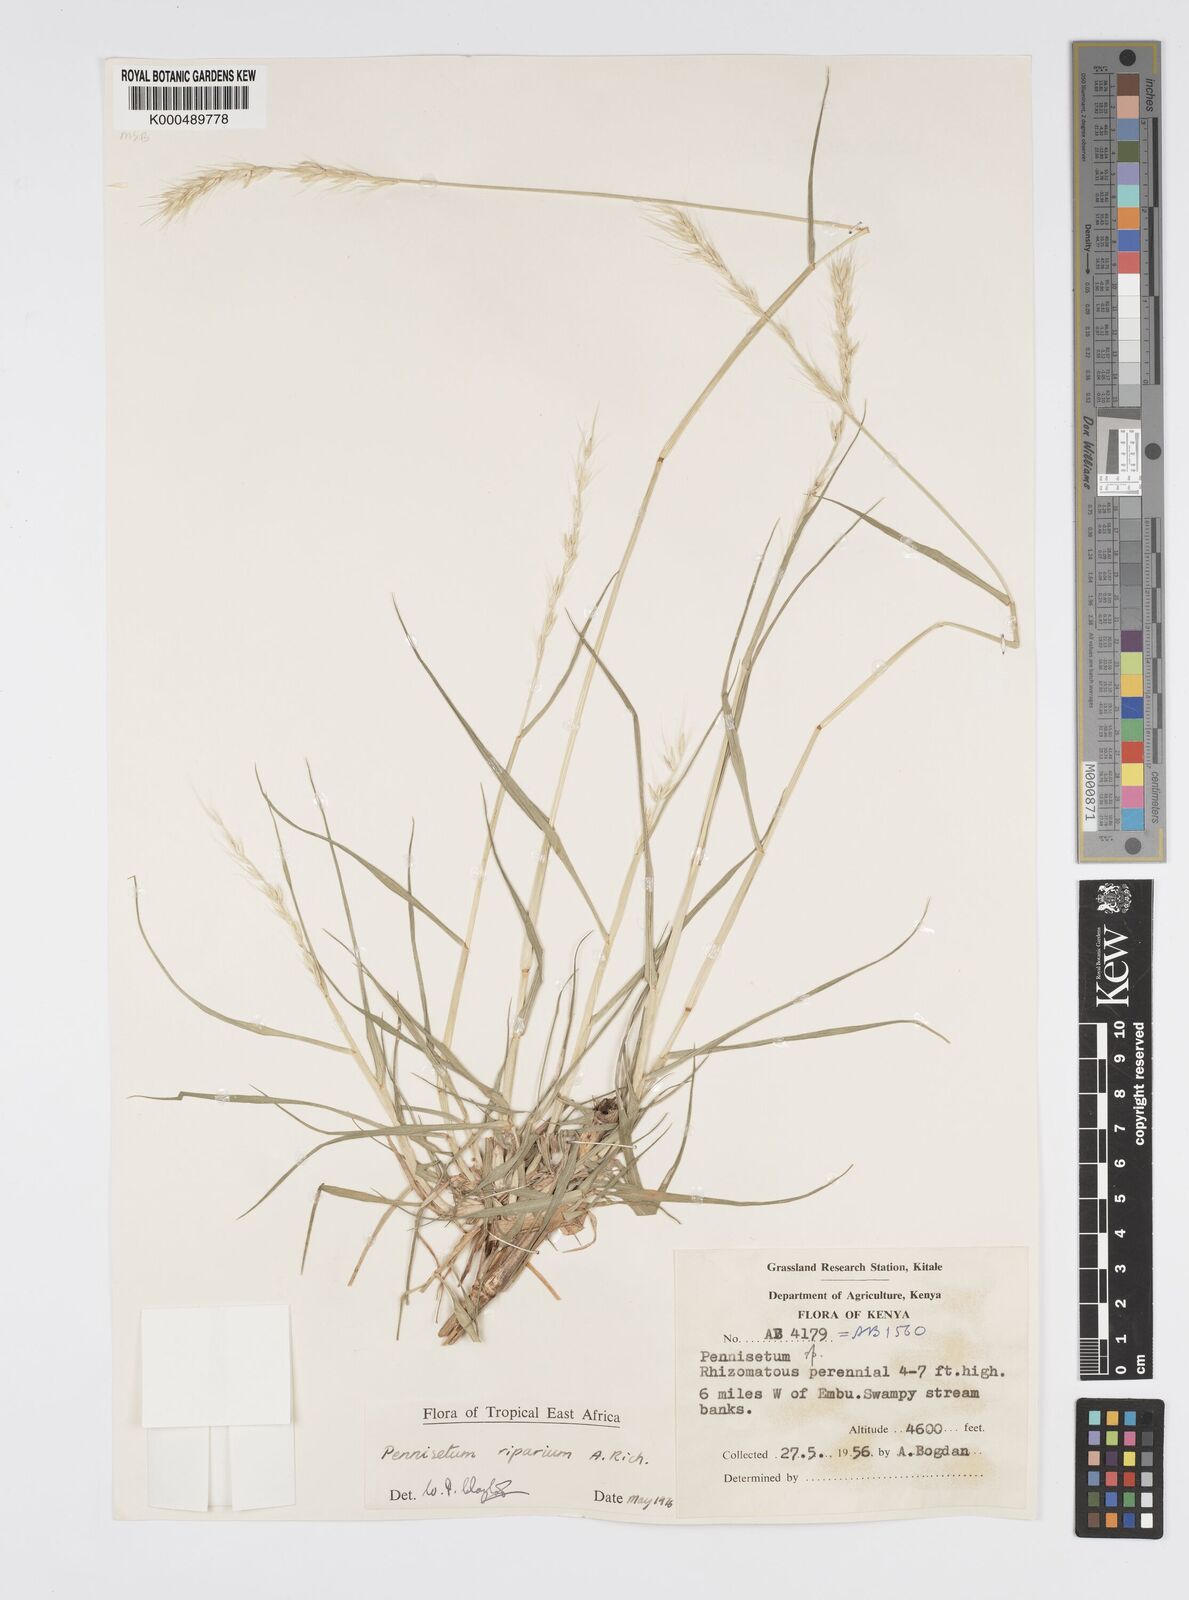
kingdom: Plantae
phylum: Tracheophyta
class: Liliopsida
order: Poales
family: Poaceae
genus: Cenchrus
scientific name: Cenchrus Pennisetum spec
